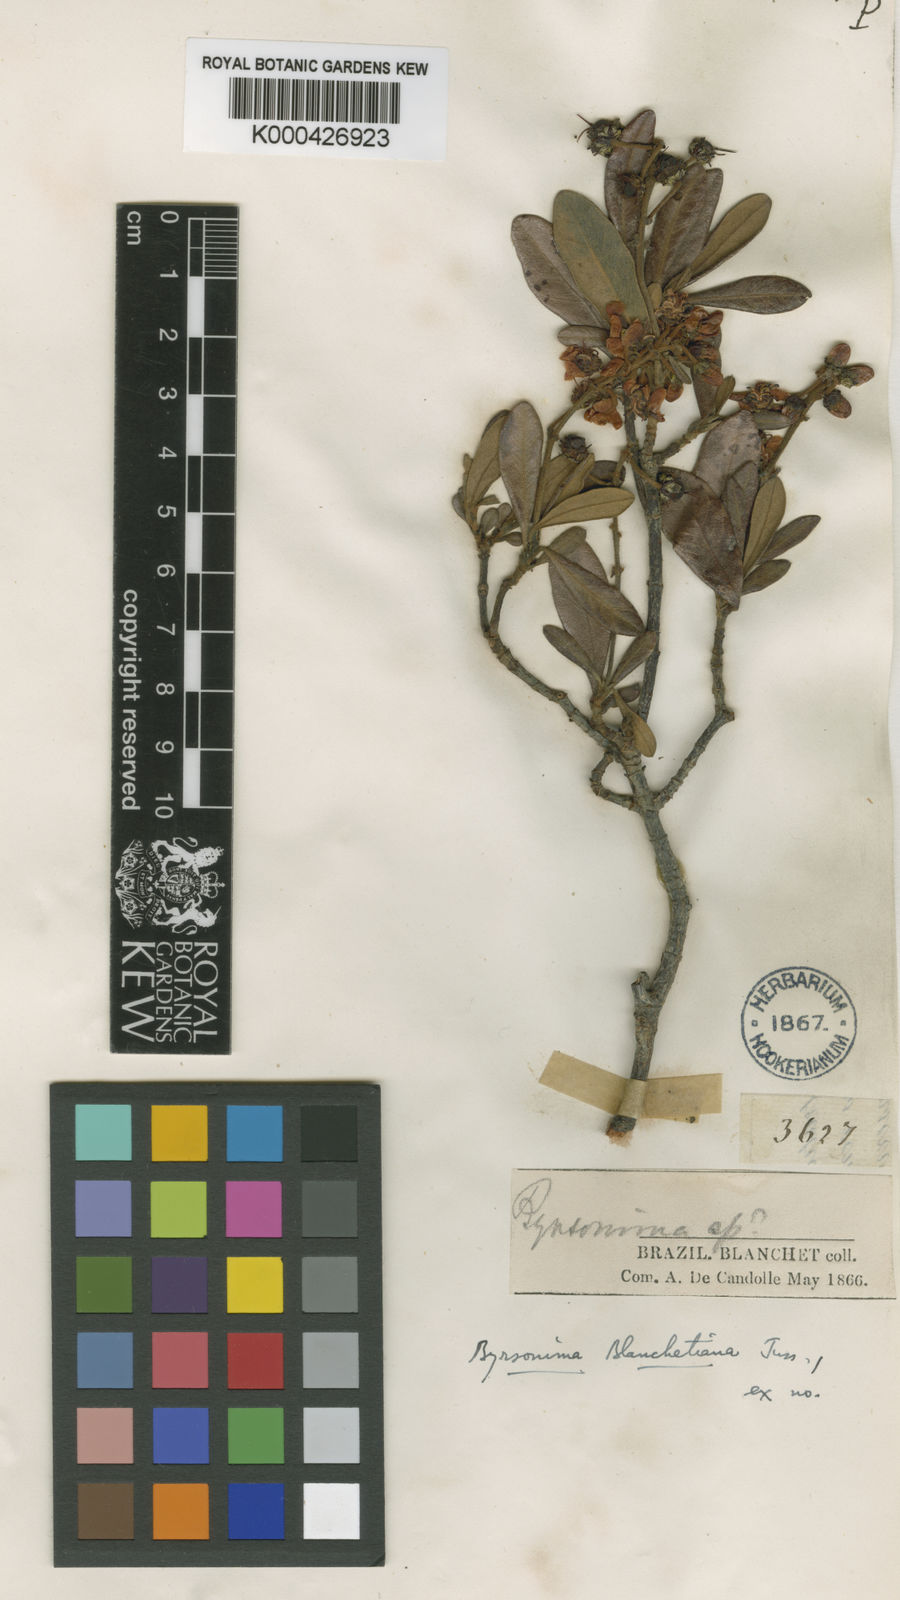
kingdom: Plantae
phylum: Tracheophyta
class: Magnoliopsida
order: Malpighiales
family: Malpighiaceae
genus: Byrsonima
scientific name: Byrsonima
